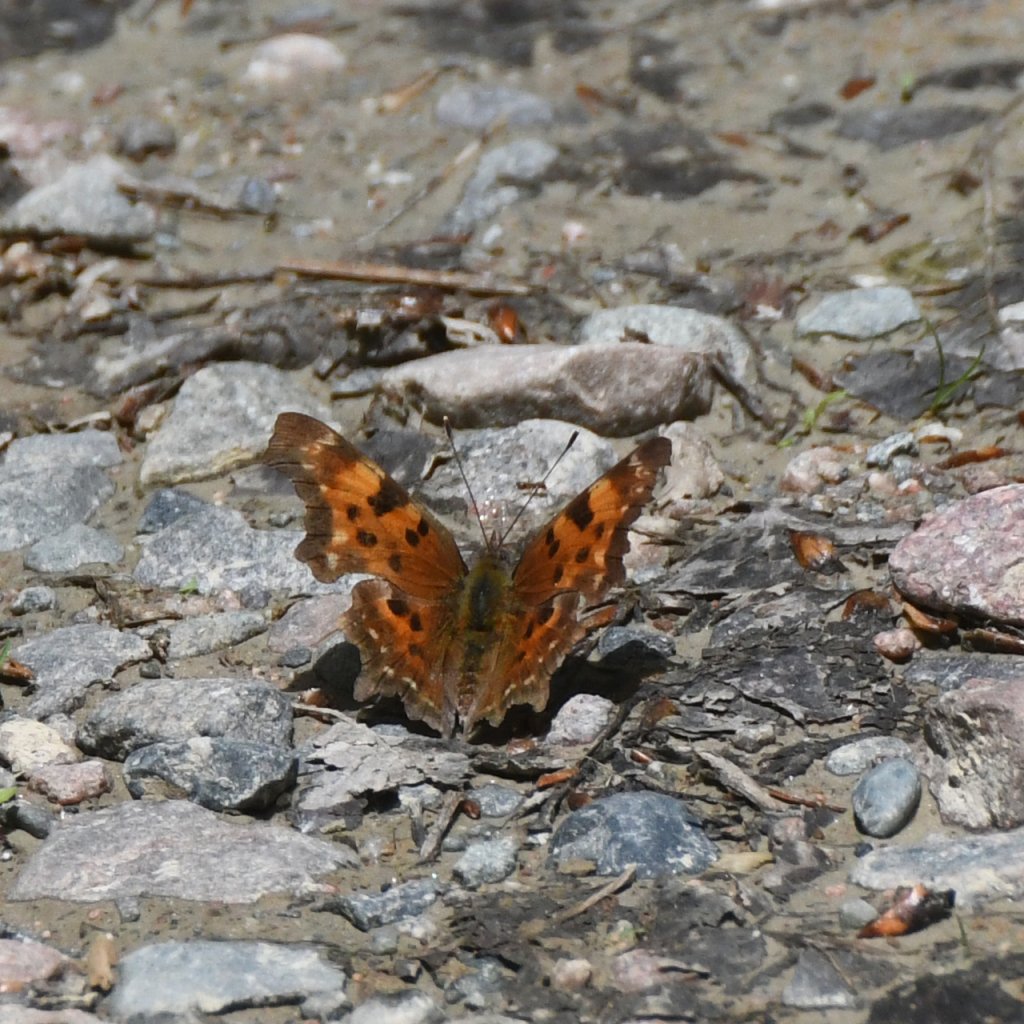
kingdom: Animalia
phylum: Arthropoda
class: Insecta
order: Lepidoptera
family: Nymphalidae
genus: Polygonia
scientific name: Polygonia faunus
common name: Green Comma
